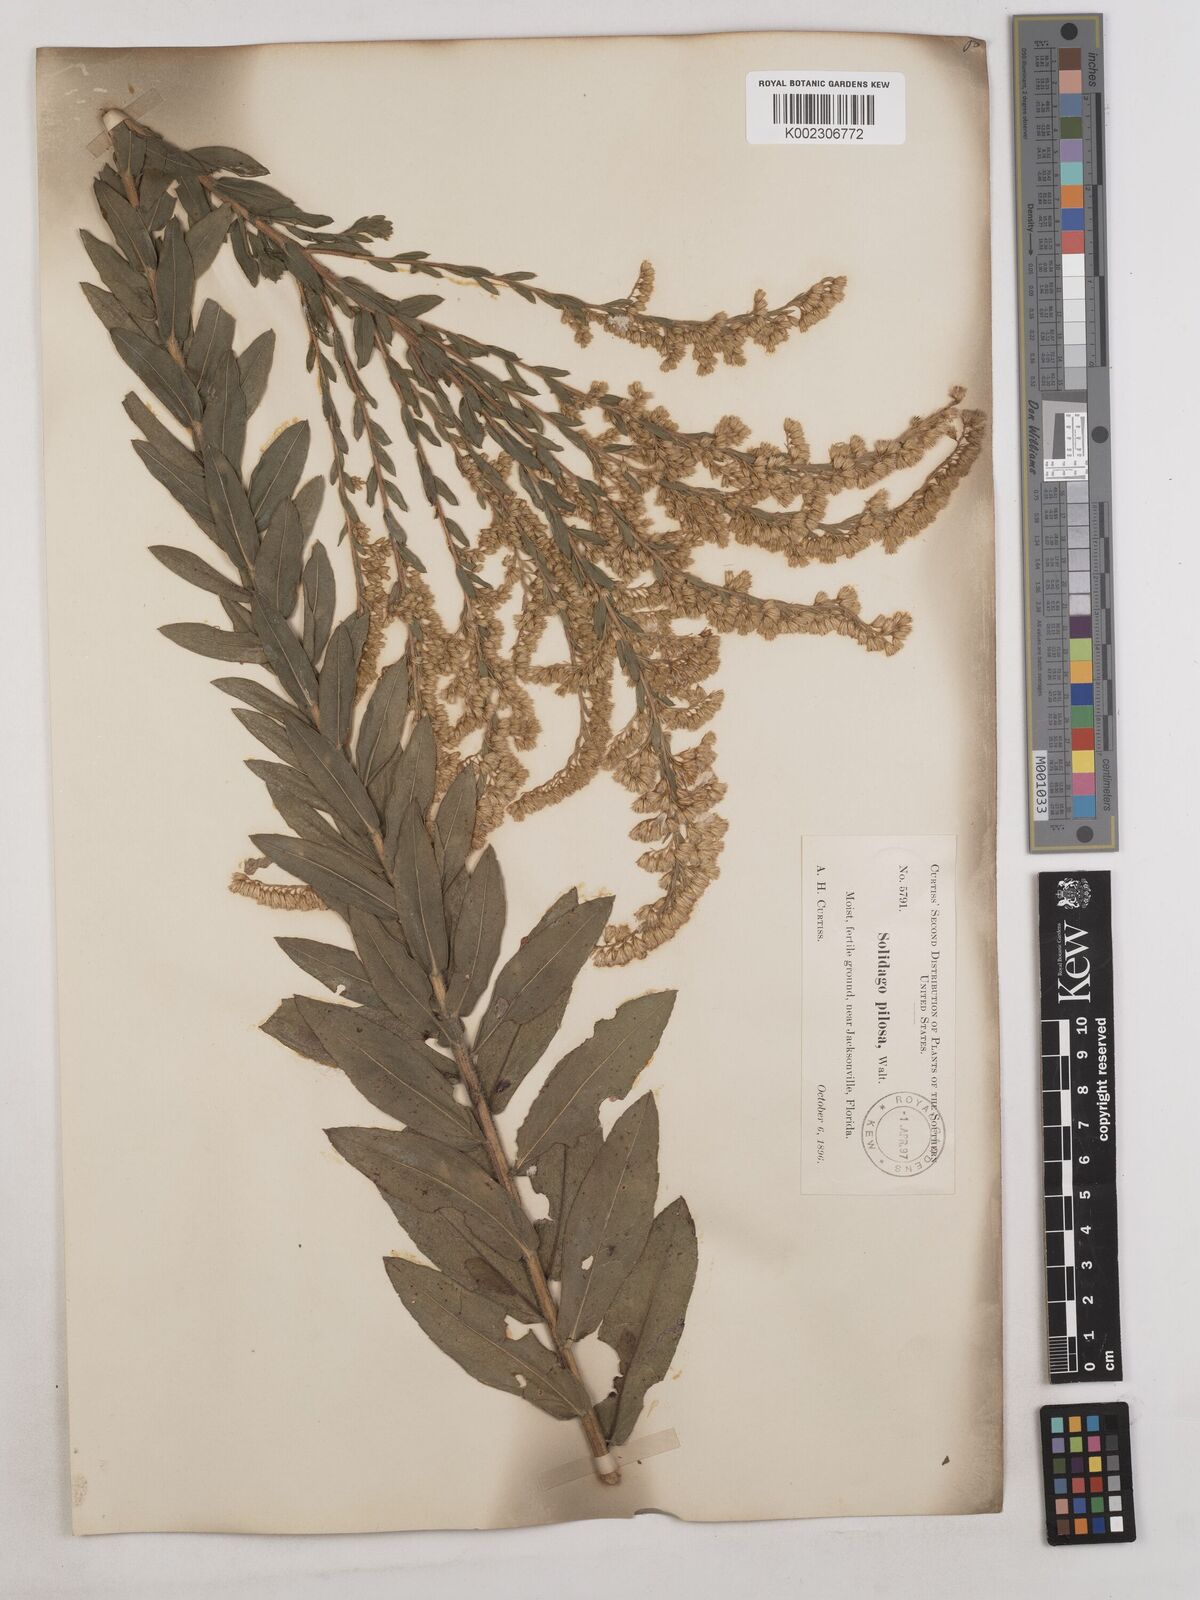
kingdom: Plantae
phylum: Tracheophyta
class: Magnoliopsida
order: Asterales
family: Asteraceae
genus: Solidago
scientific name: Solidago fistulosa
